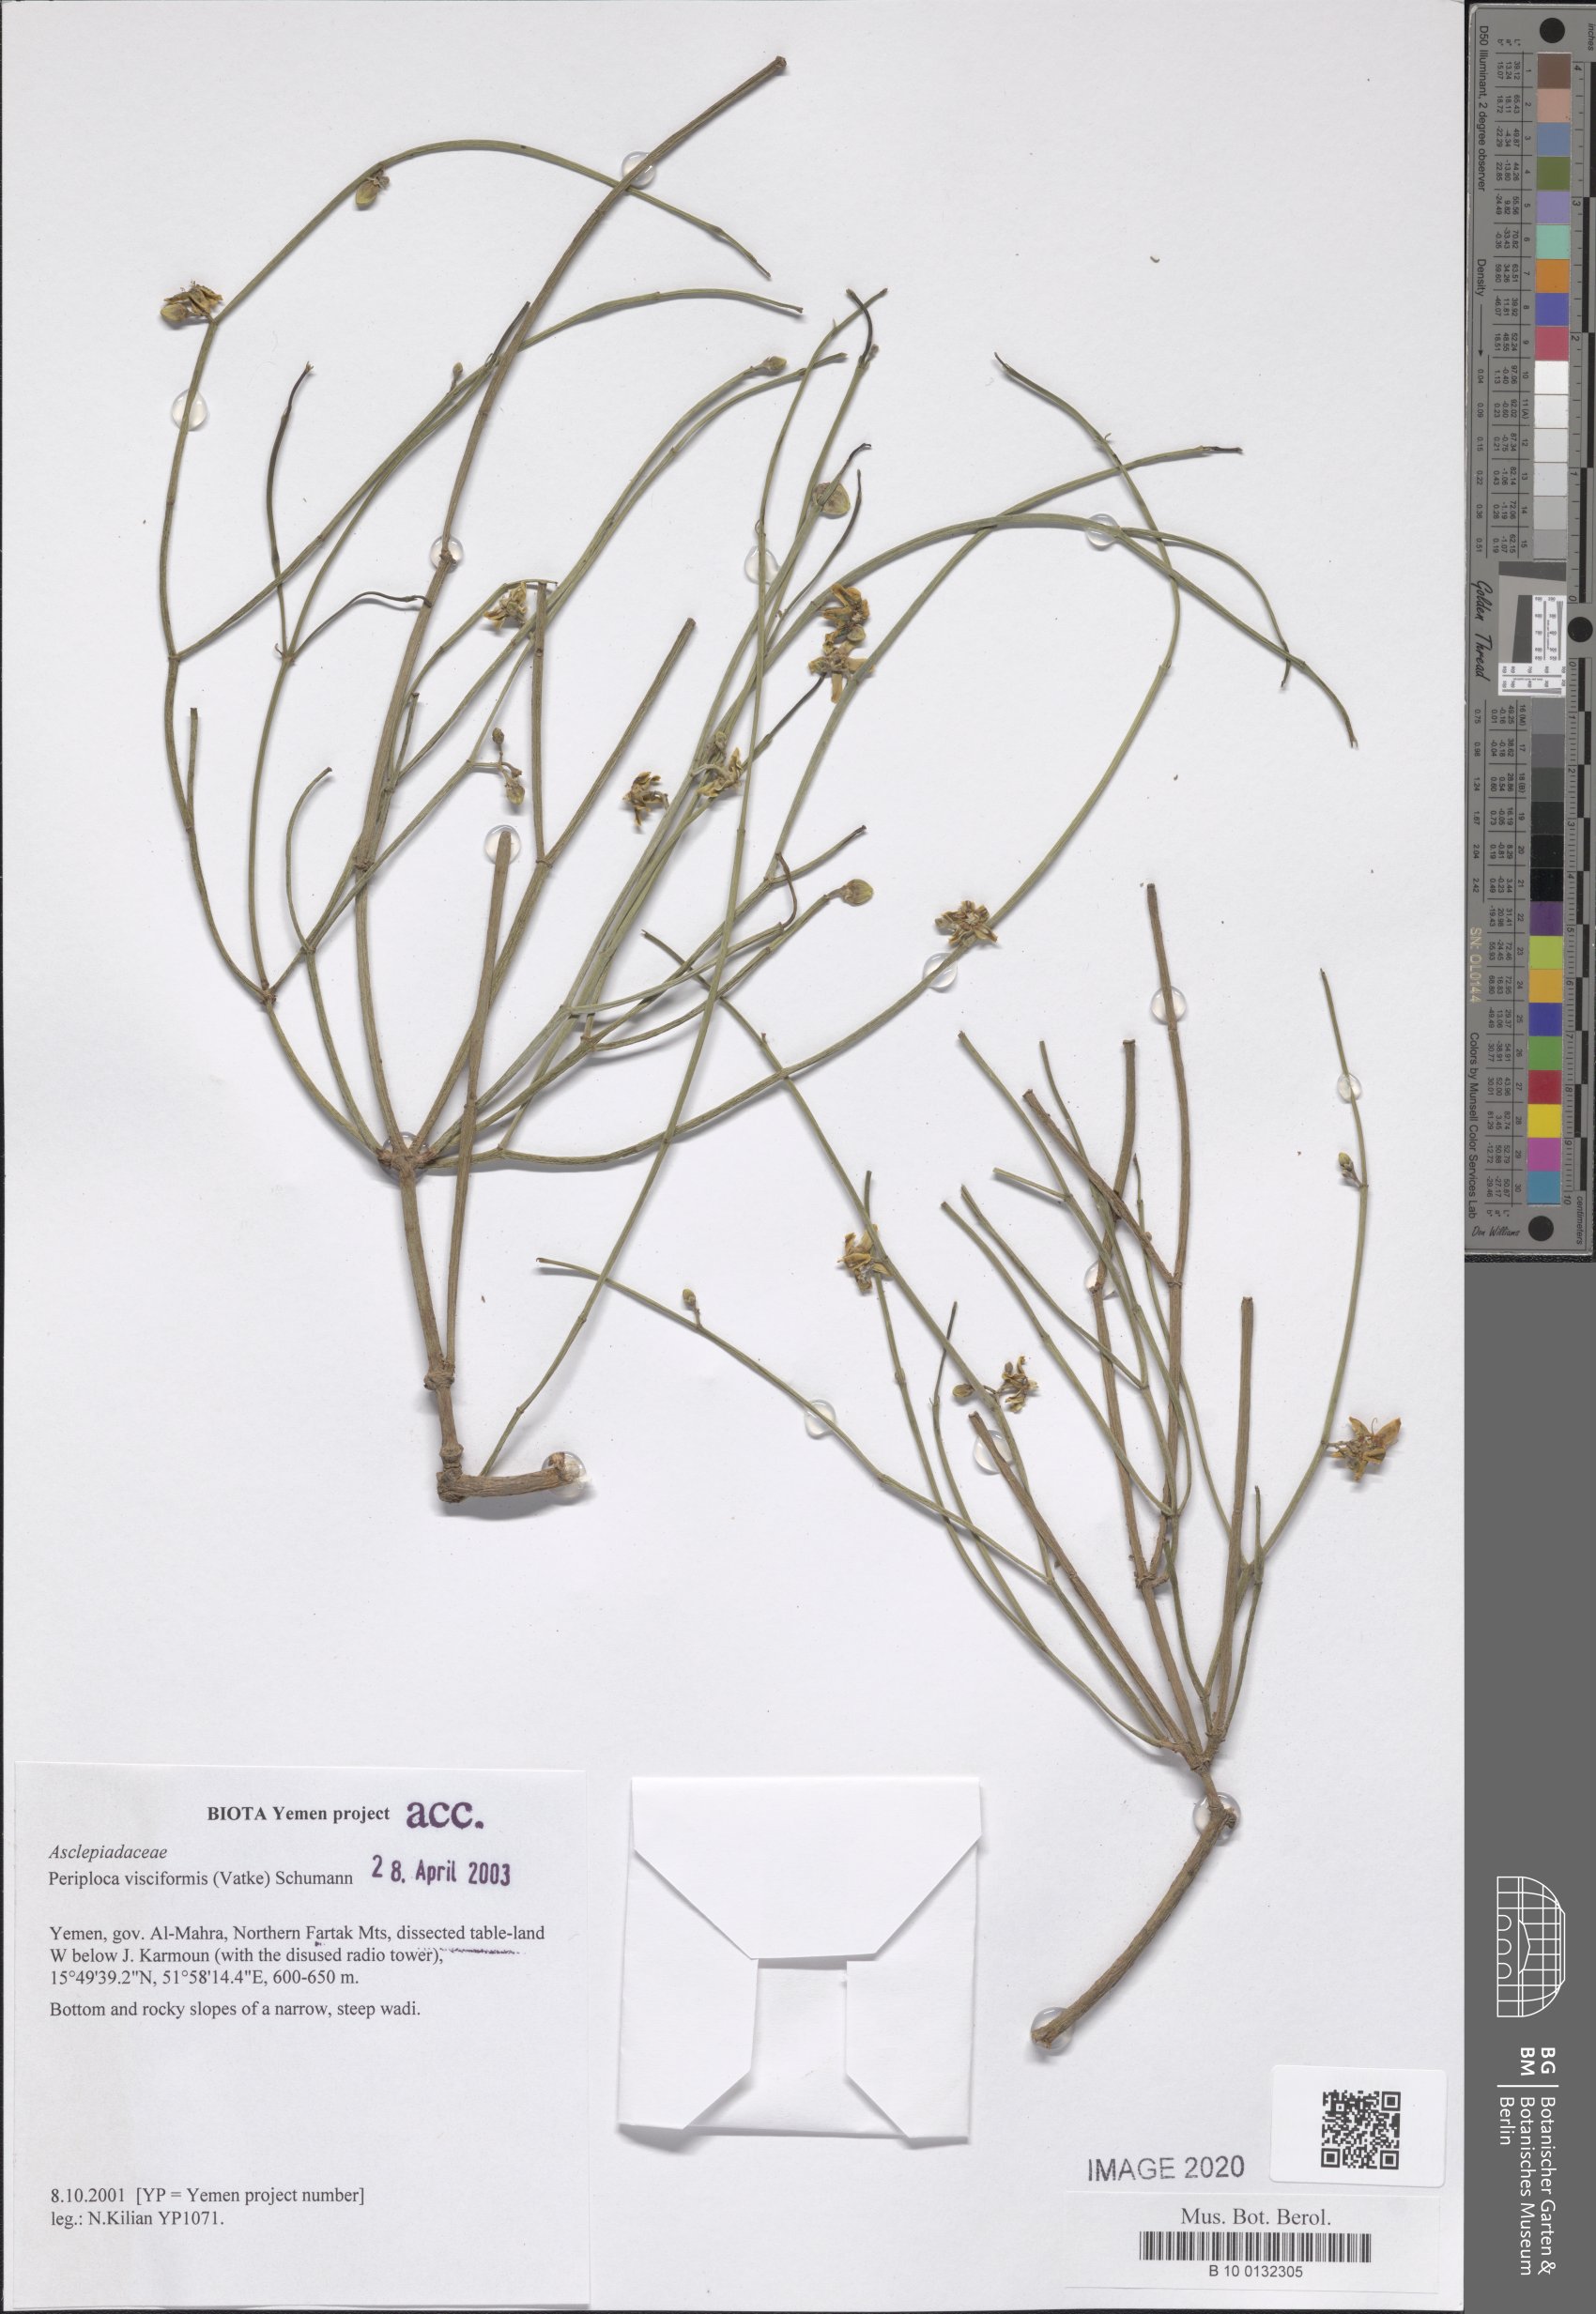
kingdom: Plantae
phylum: Tracheophyta
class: Magnoliopsida
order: Gentianales
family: Apocynaceae
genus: Periploca
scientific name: Periploca visciformis
